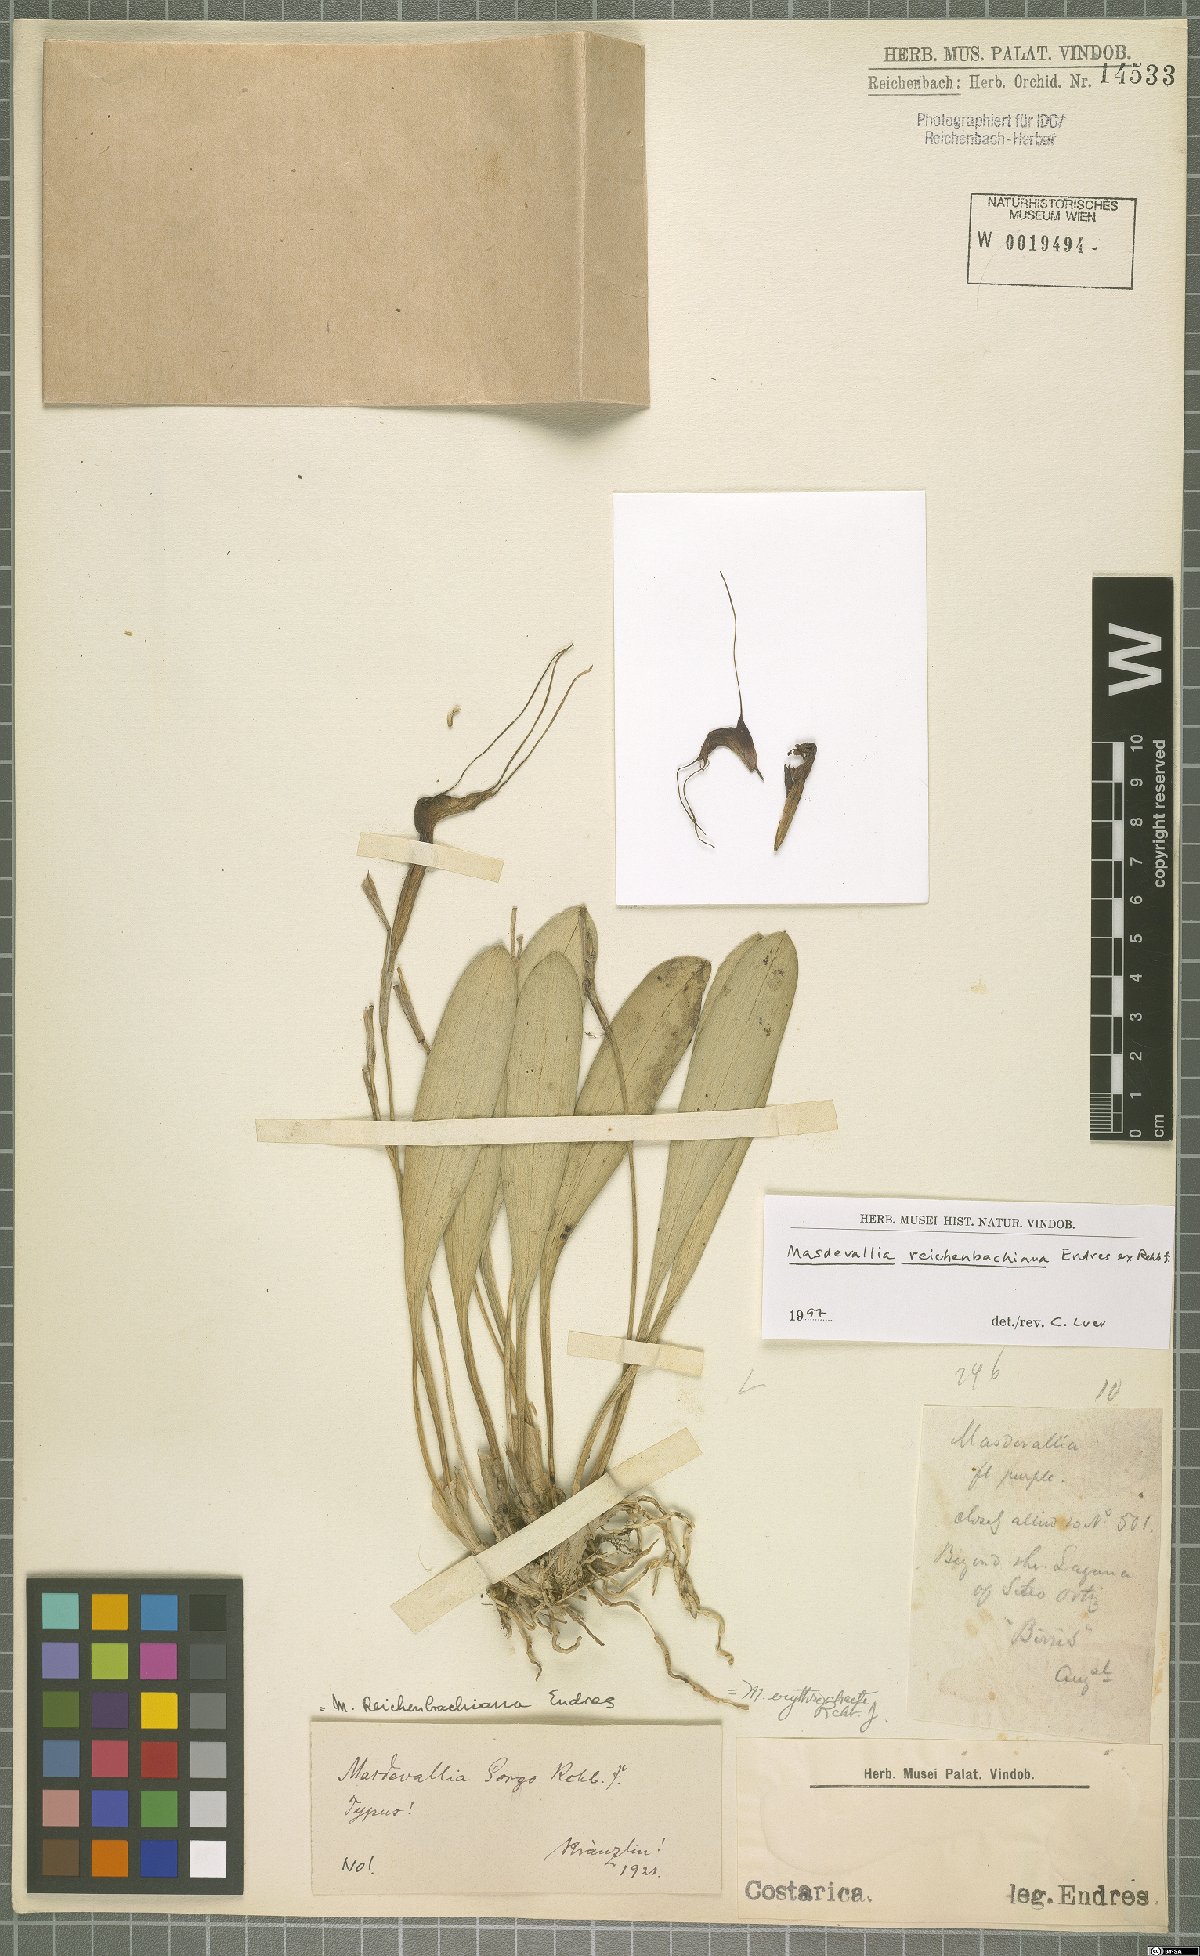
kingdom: Plantae
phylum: Tracheophyta
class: Liliopsida
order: Asparagales
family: Orchidaceae
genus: Masdevallia
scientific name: Masdevallia reichenbachiana
